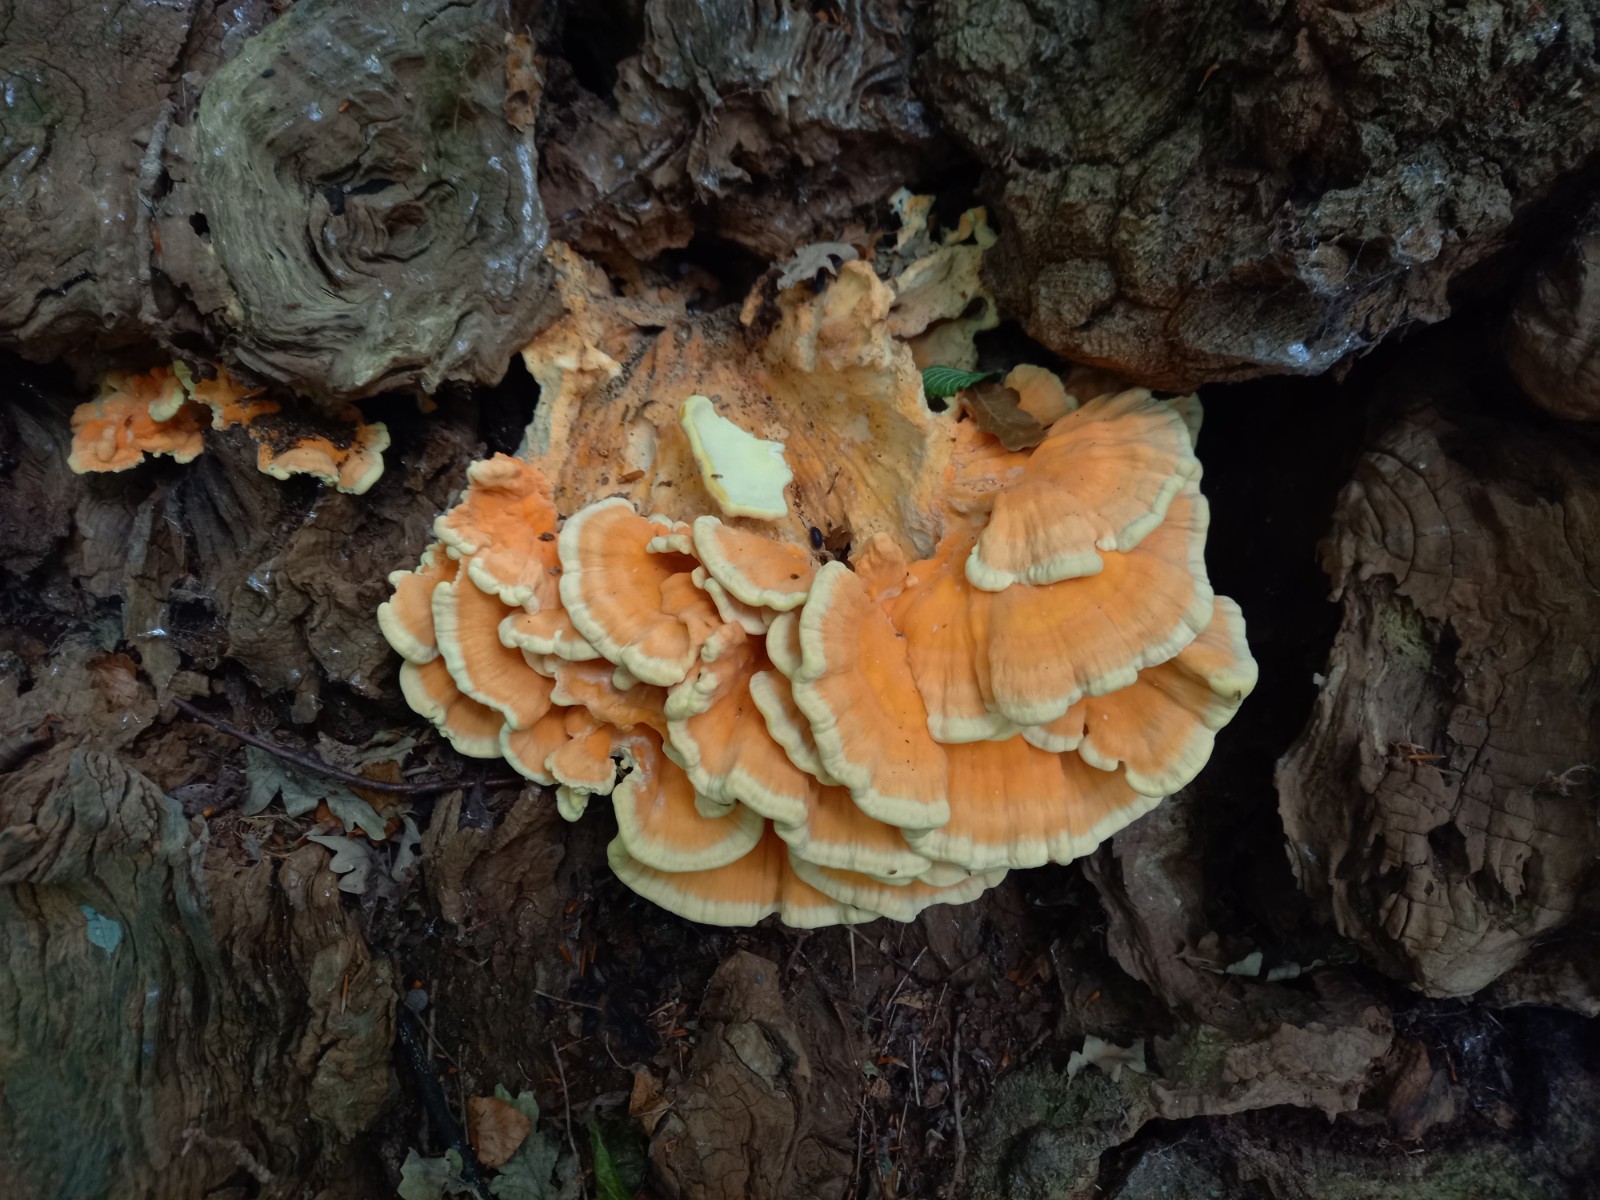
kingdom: Fungi
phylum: Basidiomycota
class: Agaricomycetes
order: Polyporales
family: Laetiporaceae
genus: Laetiporus
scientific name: Laetiporus sulphureus
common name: svovlporesvamp
